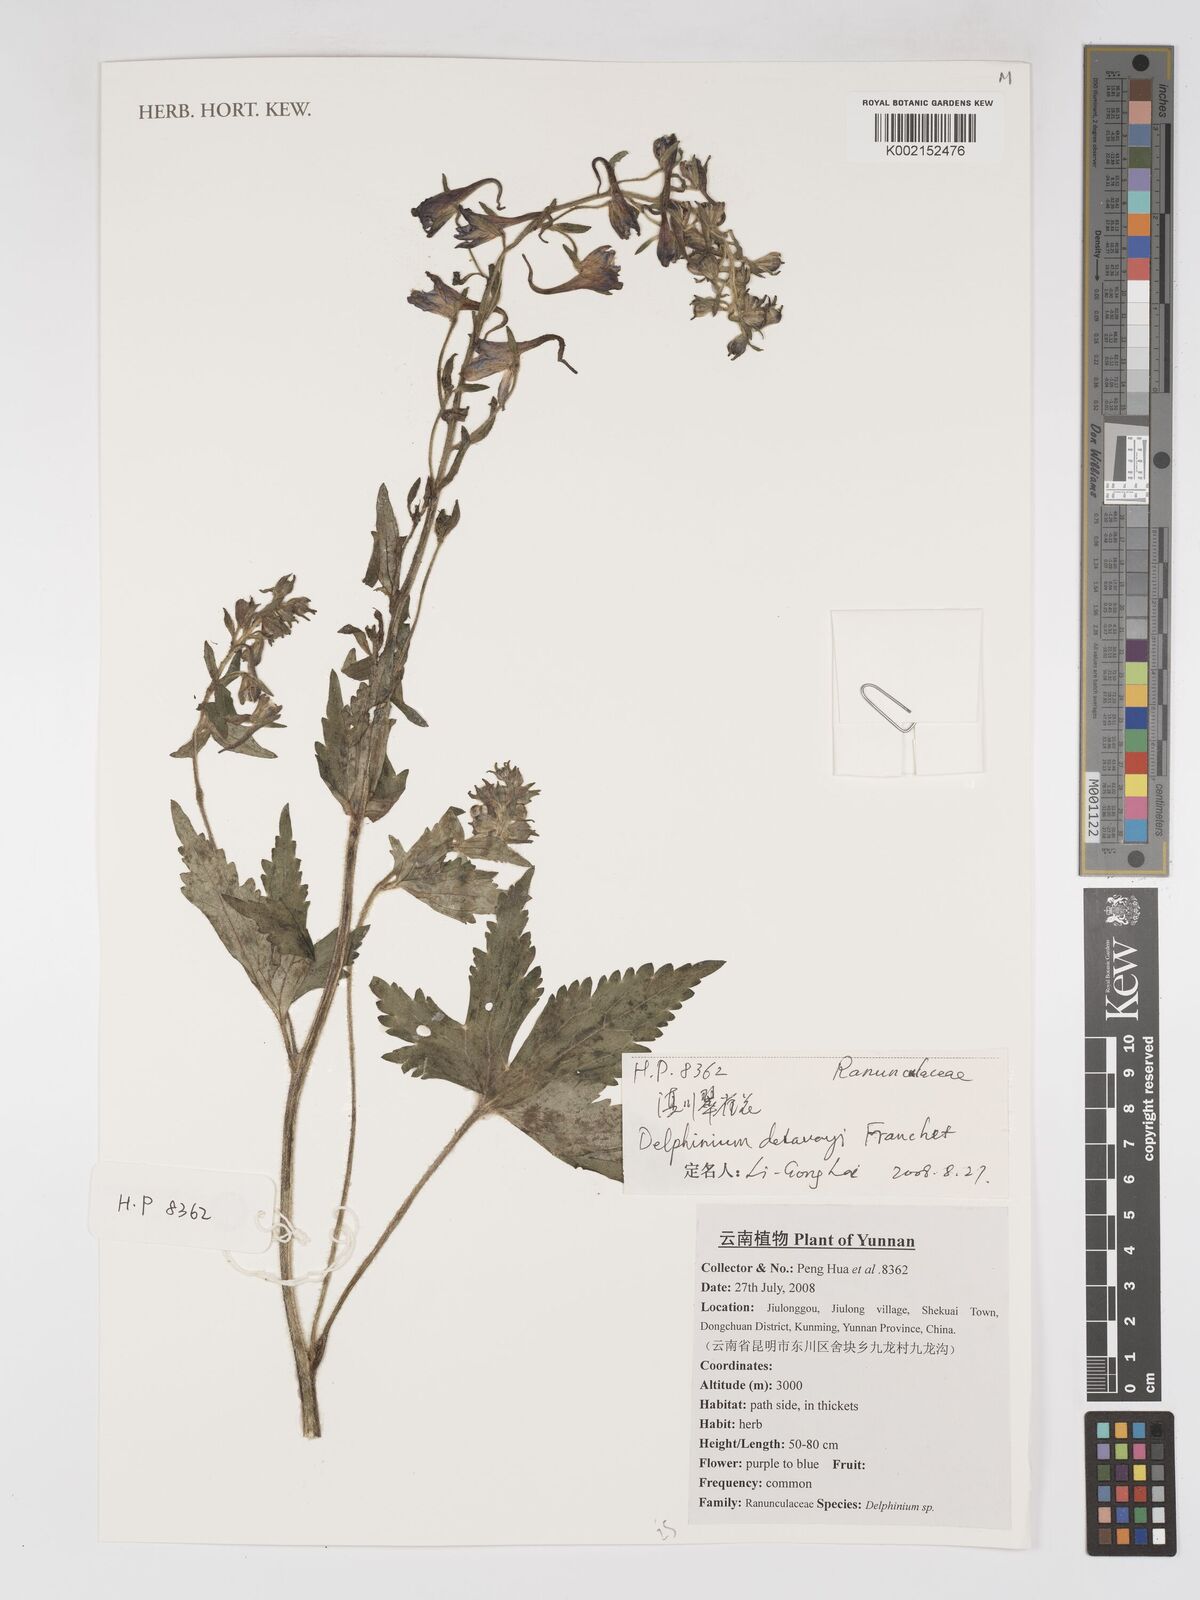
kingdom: Plantae
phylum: Tracheophyta
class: Magnoliopsida
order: Ranunculales
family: Ranunculaceae
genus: Delphinium
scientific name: Delphinium delavayi
